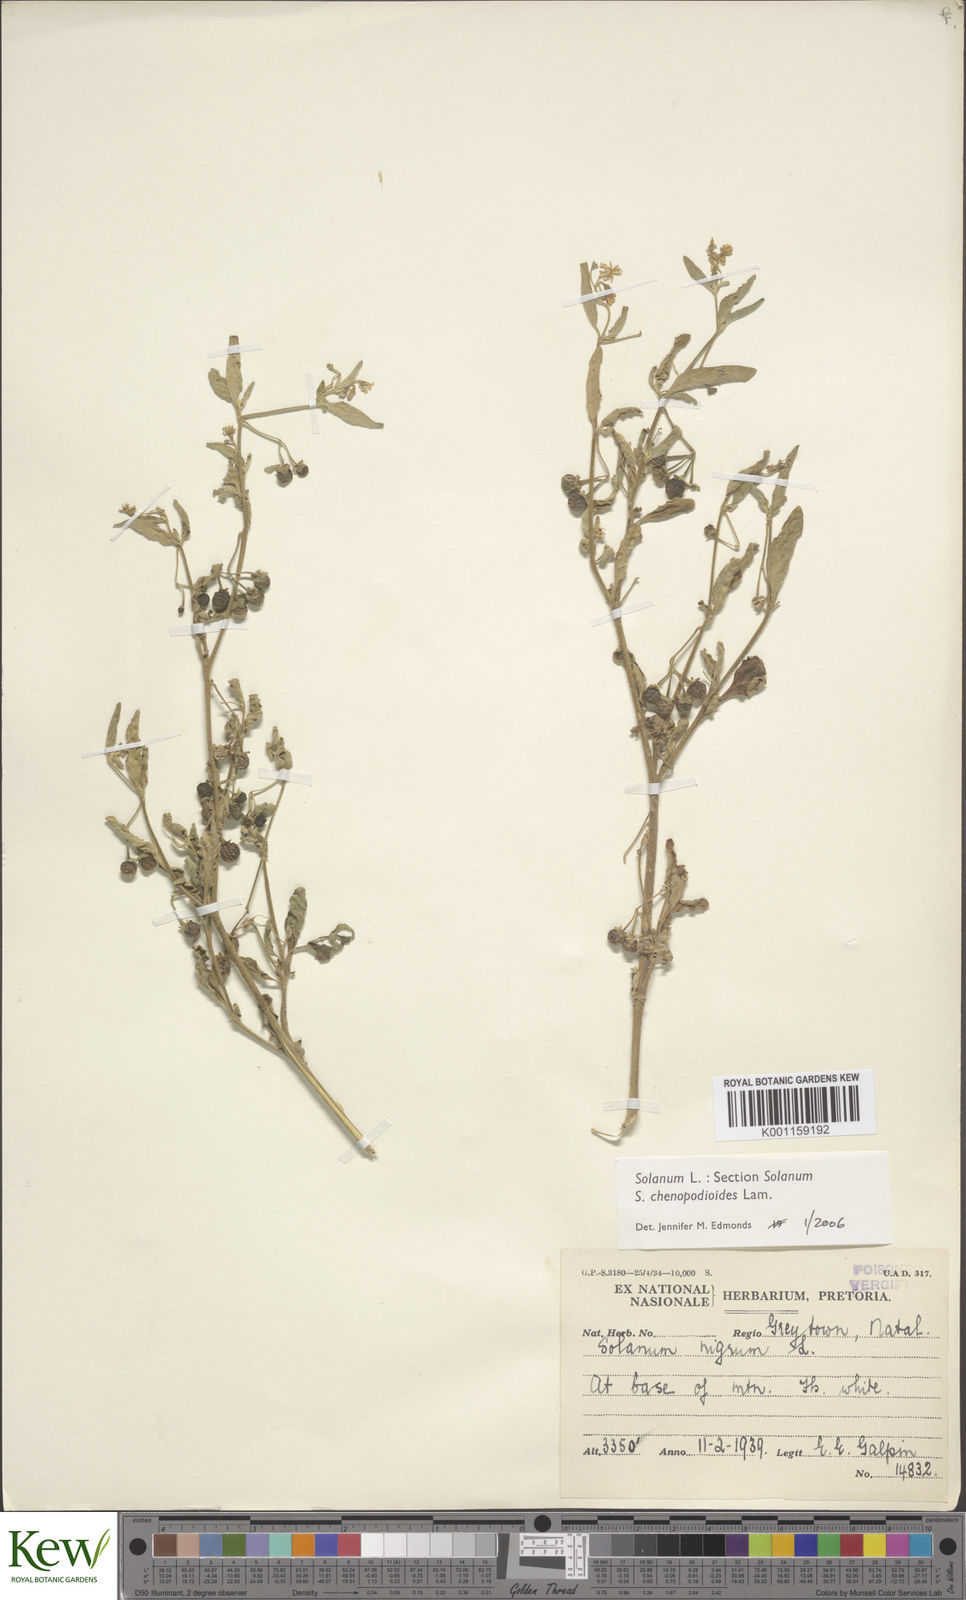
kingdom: Plantae
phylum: Tracheophyta
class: Magnoliopsida
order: Solanales
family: Solanaceae
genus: Solanum
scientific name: Solanum chenopodioides
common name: Tall nightshade
